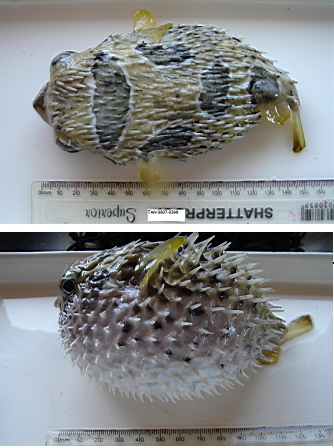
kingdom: Animalia
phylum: Chordata
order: Tetraodontiformes
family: Diodontidae
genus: Diodon
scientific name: Diodon liturosus
